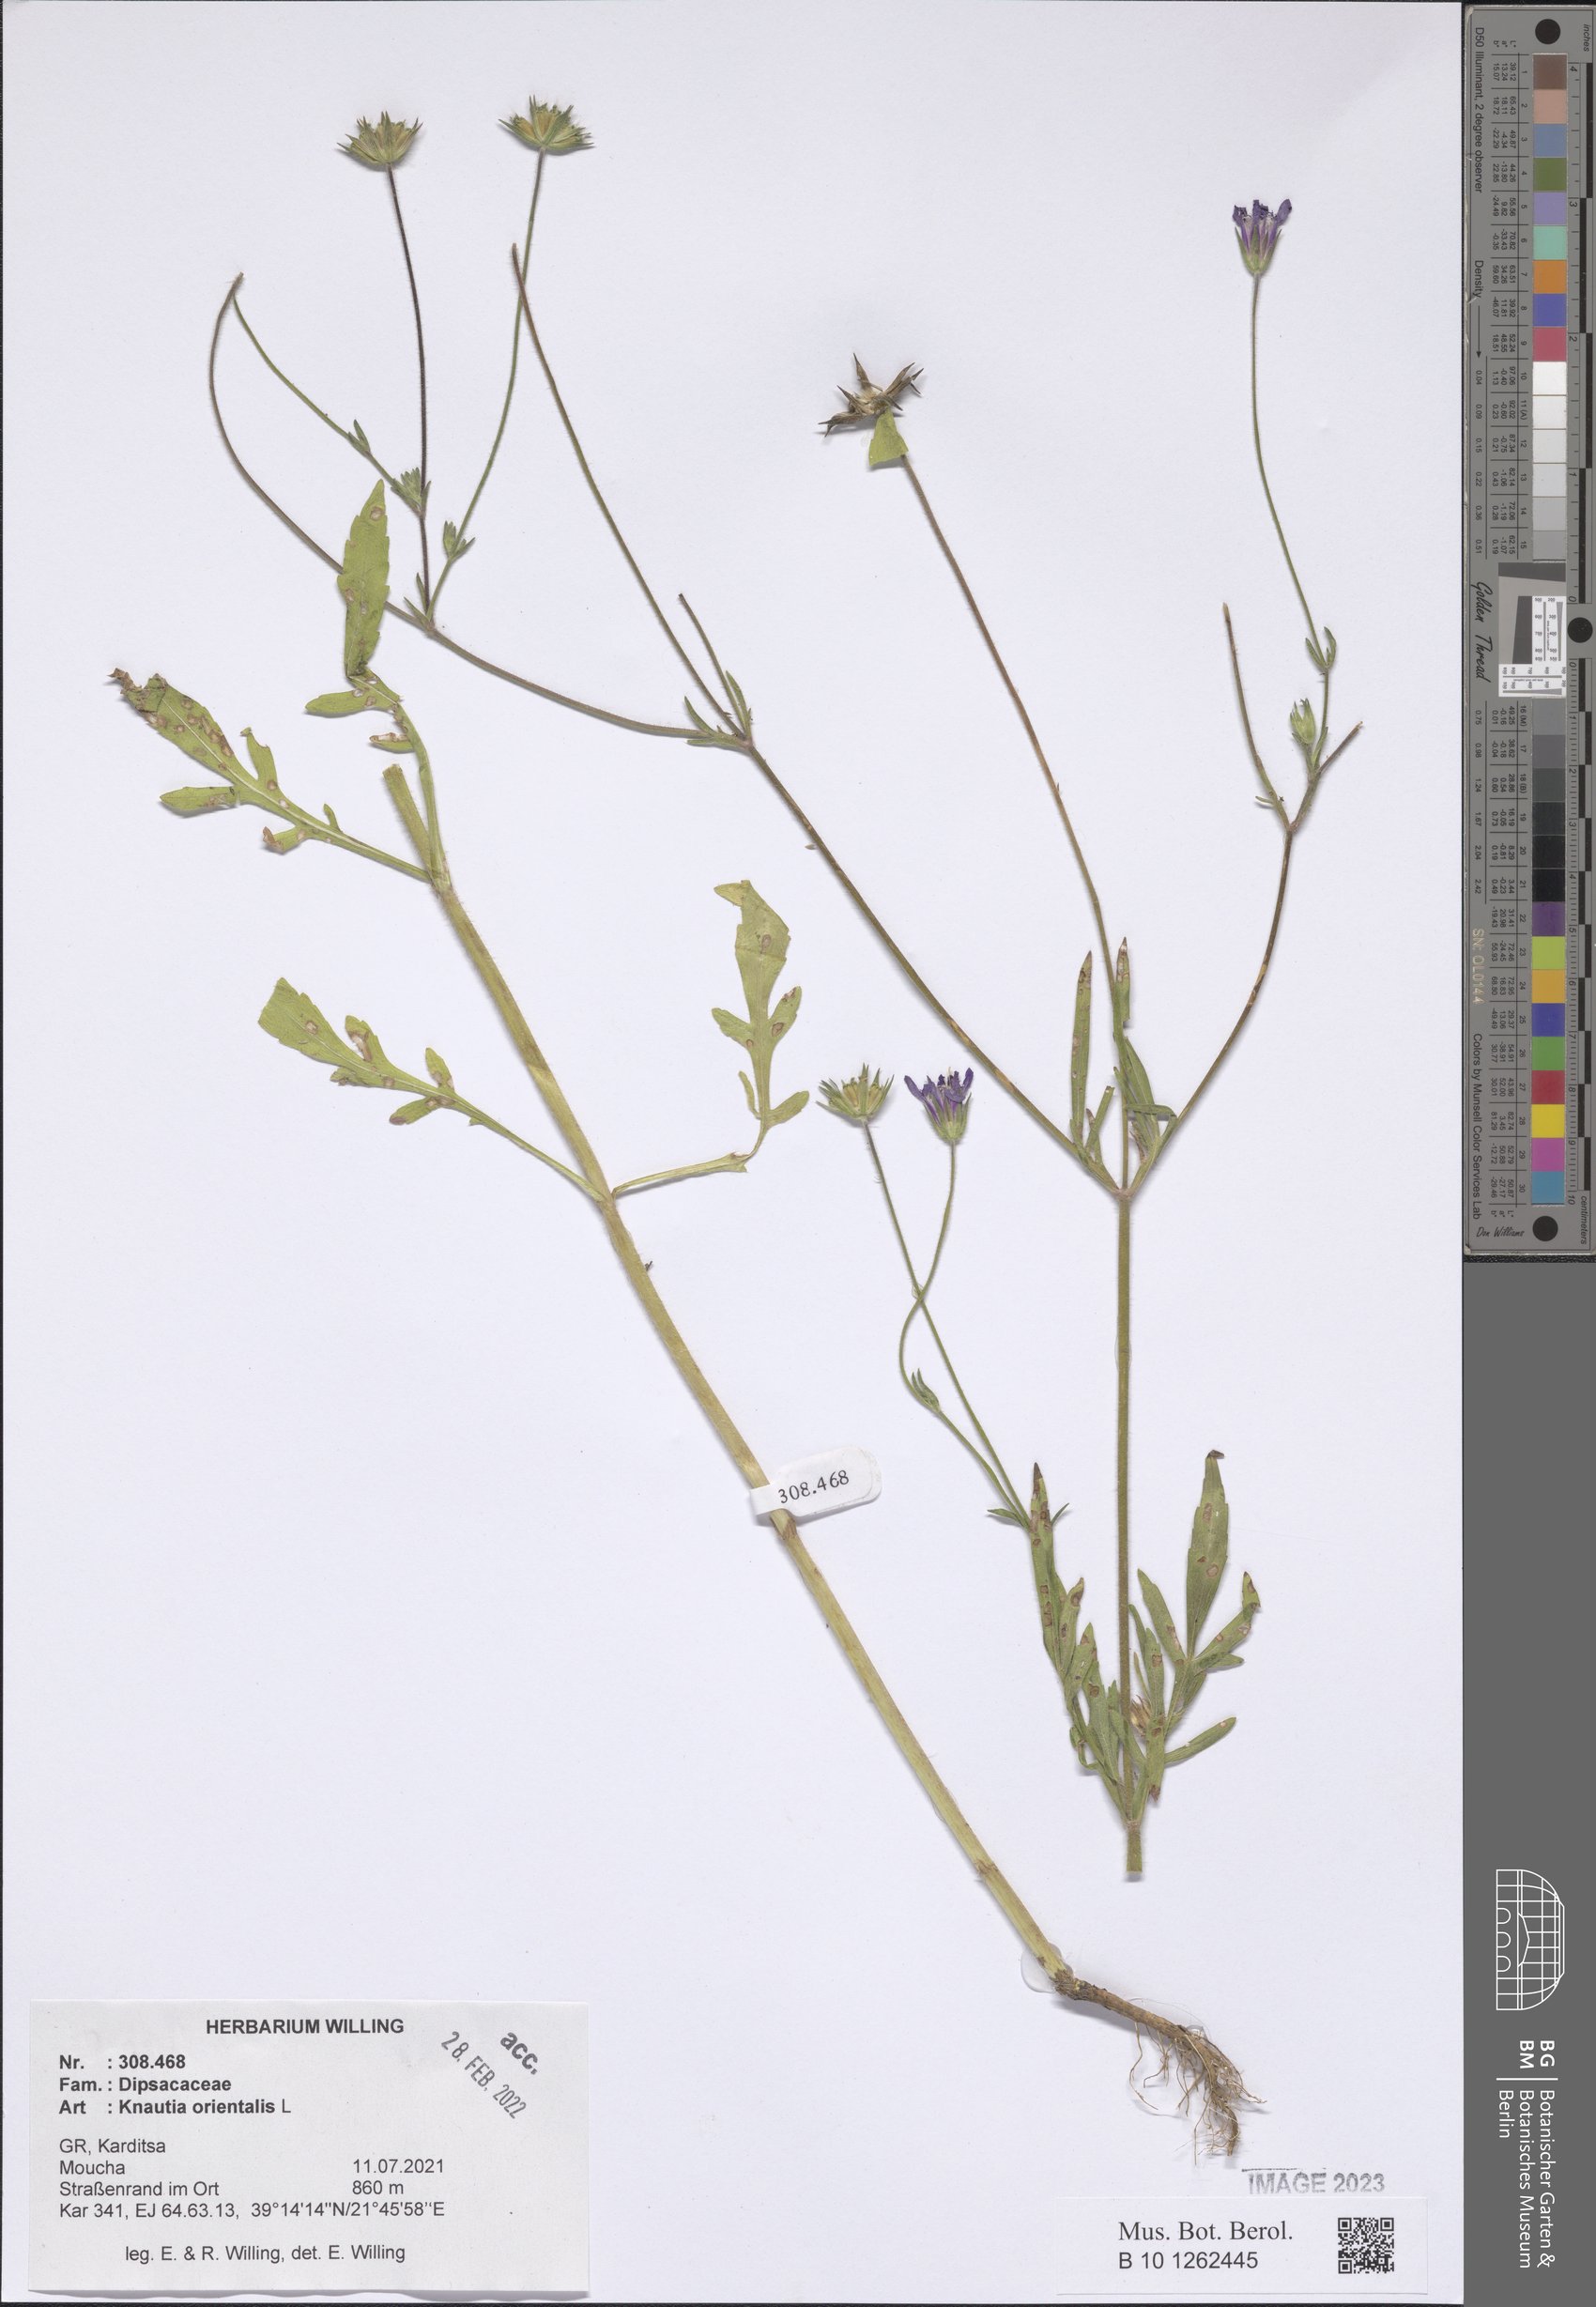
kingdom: Plantae
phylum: Tracheophyta
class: Magnoliopsida
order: Dipsacales
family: Caprifoliaceae
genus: Knautia
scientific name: Knautia orientalis
